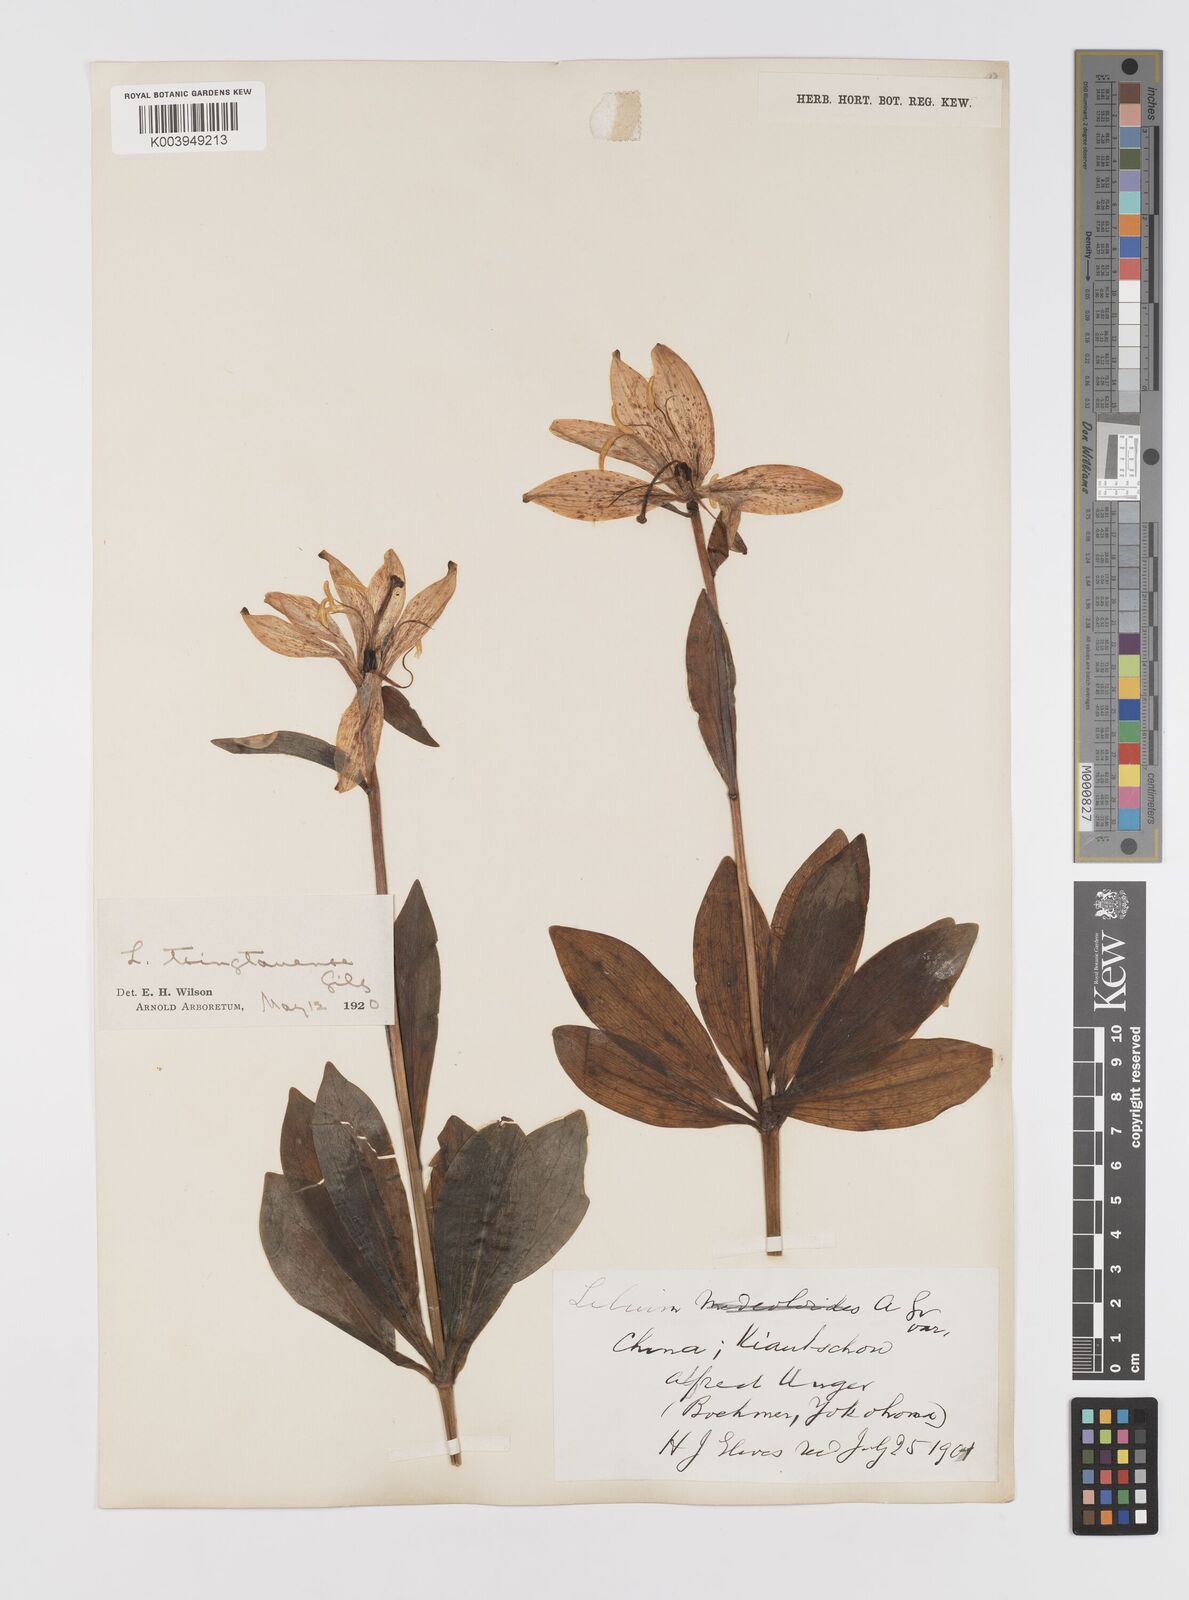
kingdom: Plantae
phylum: Tracheophyta
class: Liliopsida
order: Liliales
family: Liliaceae
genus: Lilium
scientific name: Lilium tsingtauense
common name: Korean wheel lily
